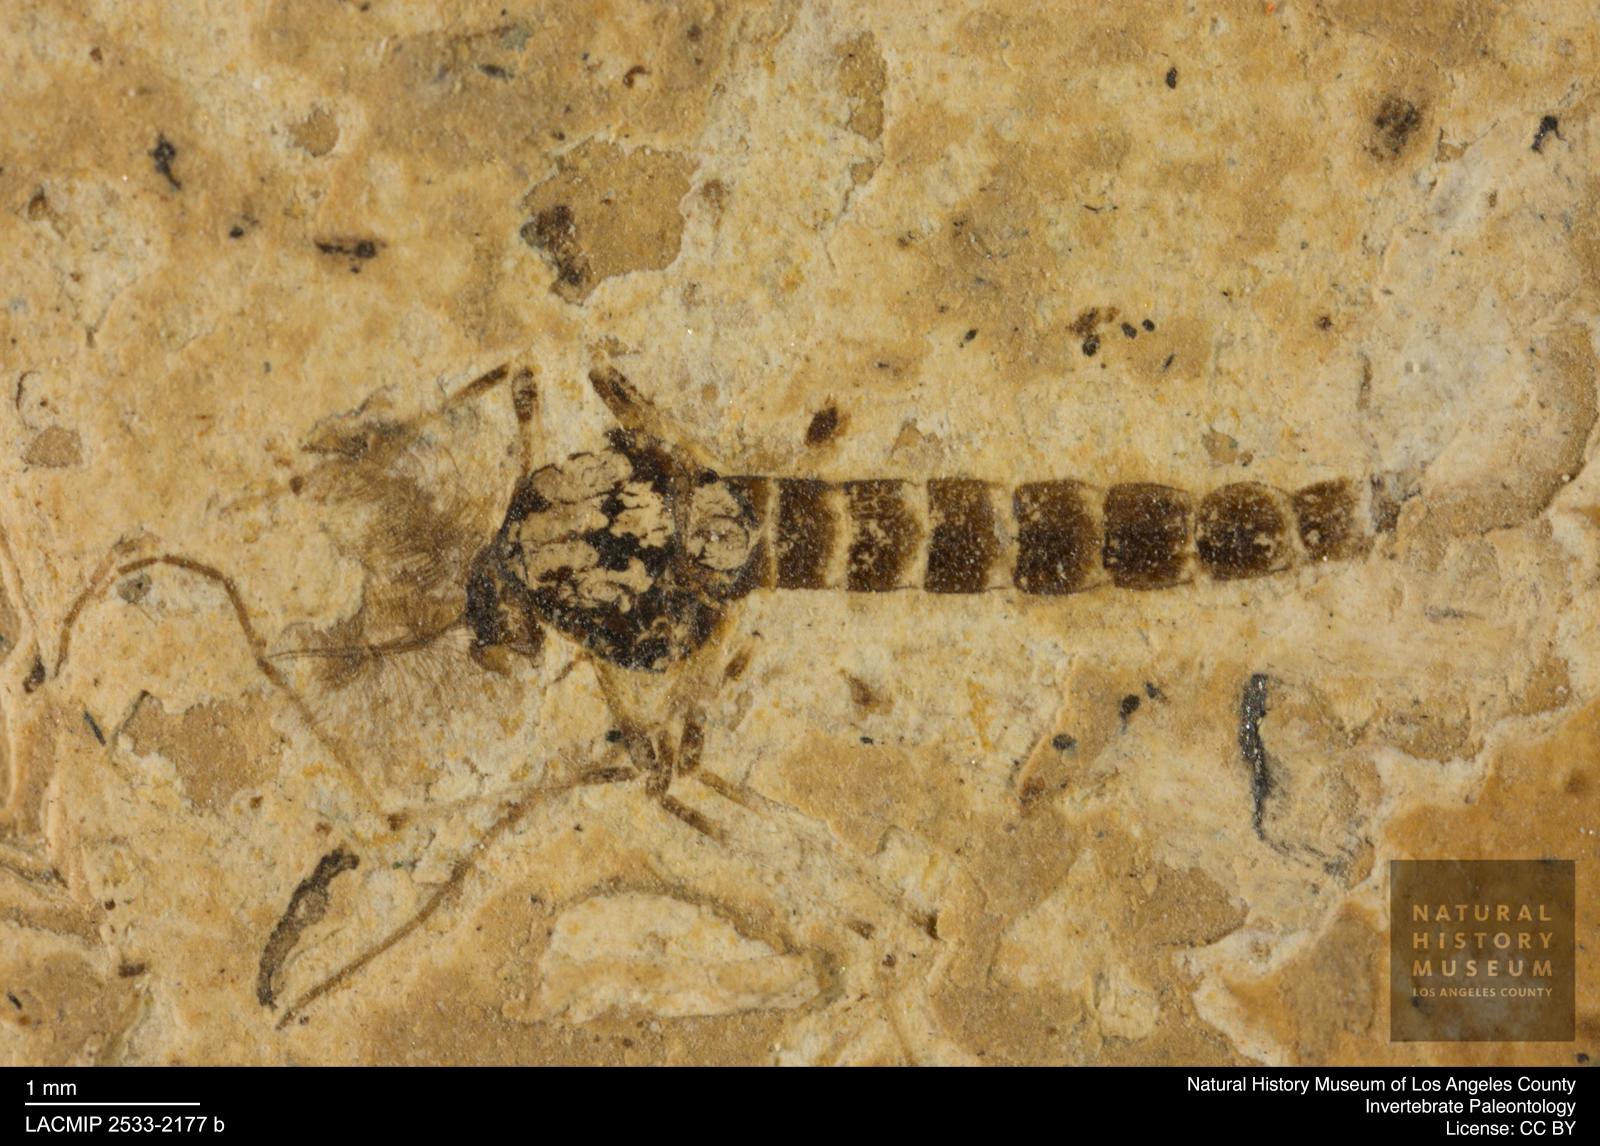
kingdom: Animalia
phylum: Arthropoda
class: Insecta
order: Diptera
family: Chironomidae
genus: Procladius
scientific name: Procladius
